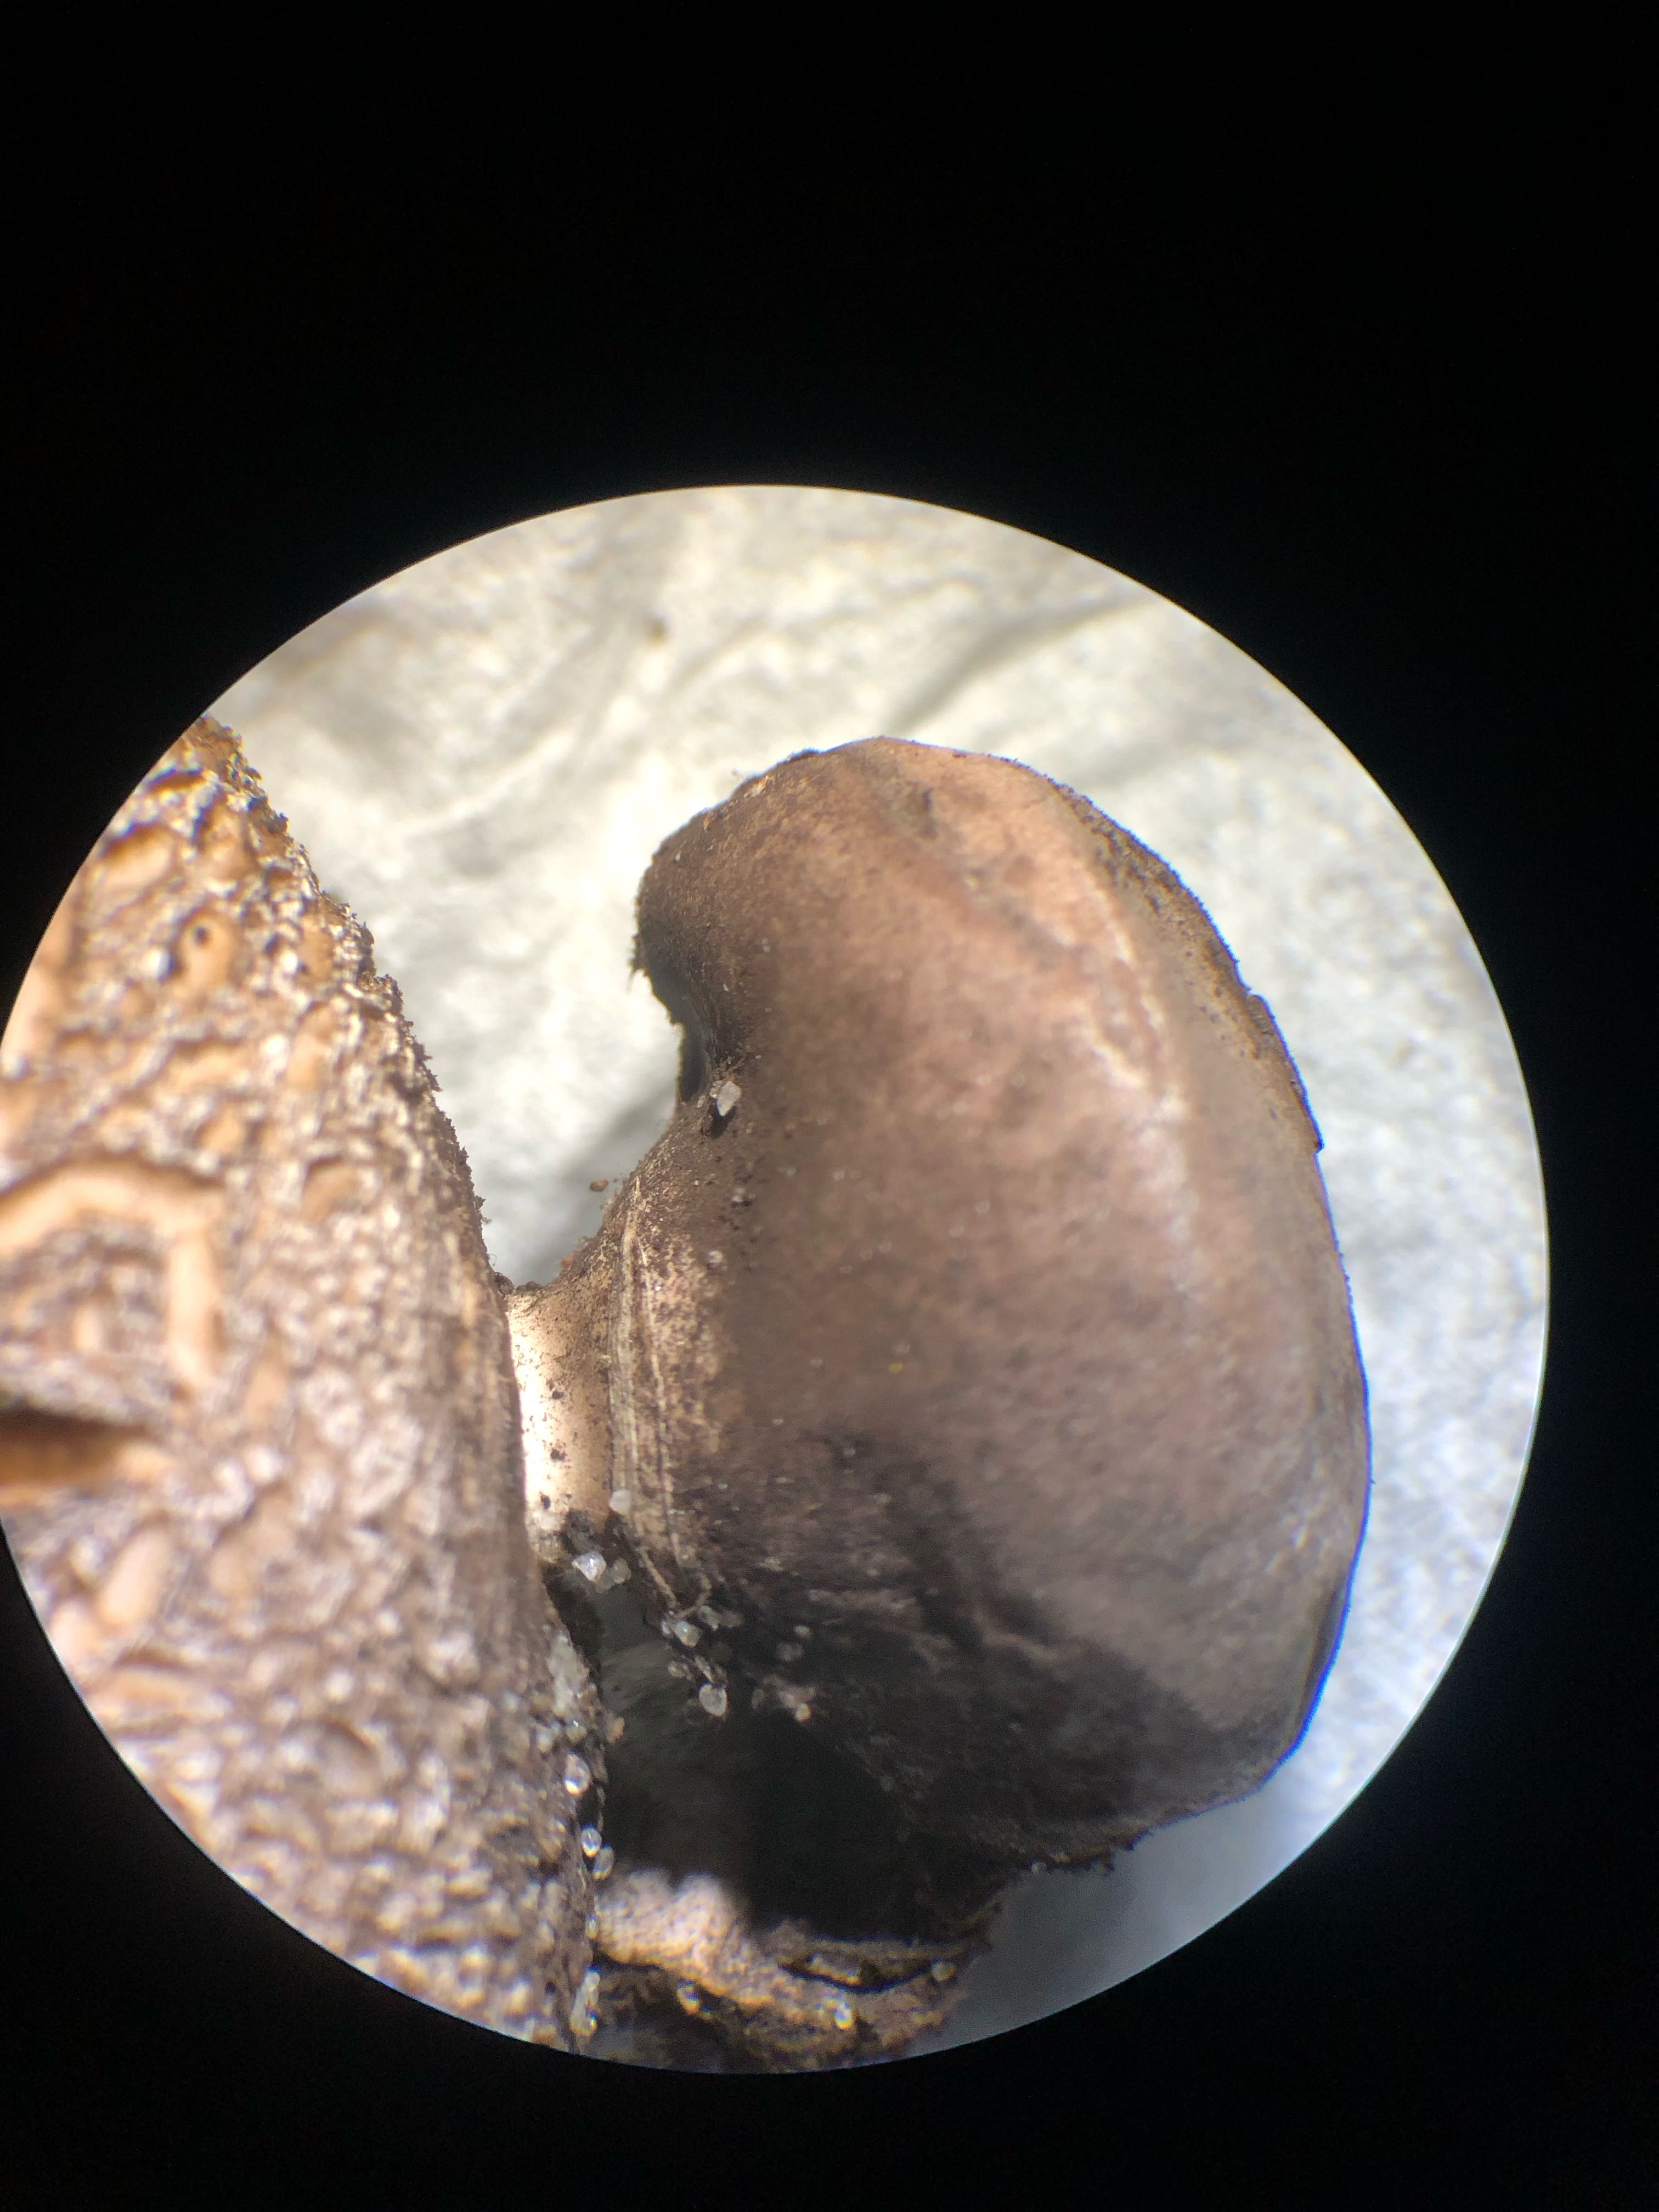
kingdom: Fungi
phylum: Basidiomycota
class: Agaricomycetes
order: Geastrales
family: Geastraceae
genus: Geastrum
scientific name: Geastrum coronatum
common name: mørk stjernebold
